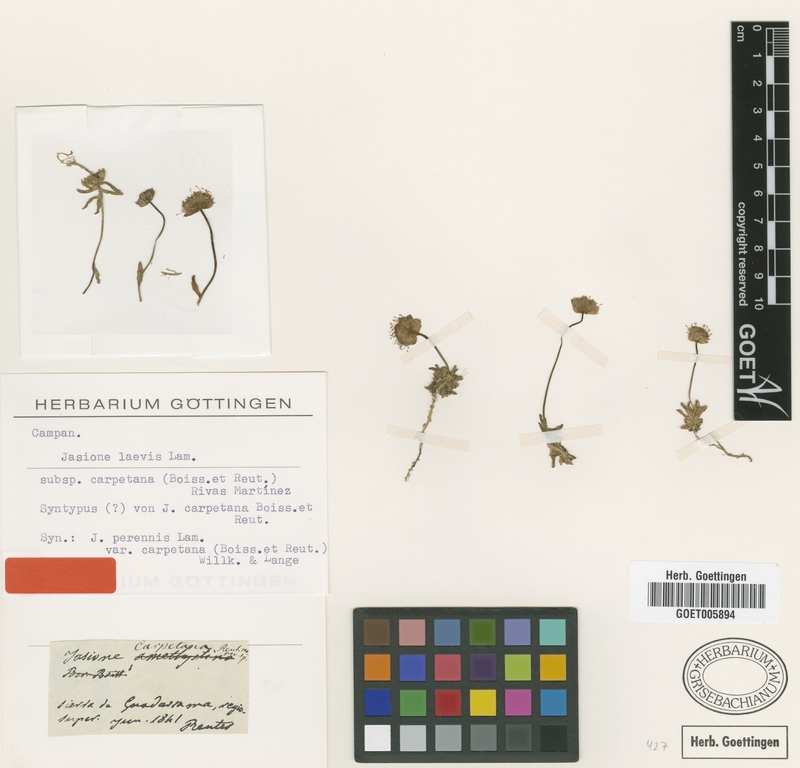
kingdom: Plantae
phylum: Tracheophyta
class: Magnoliopsida
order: Asterales
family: Campanulaceae
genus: Jasione
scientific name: Jasione laevis
